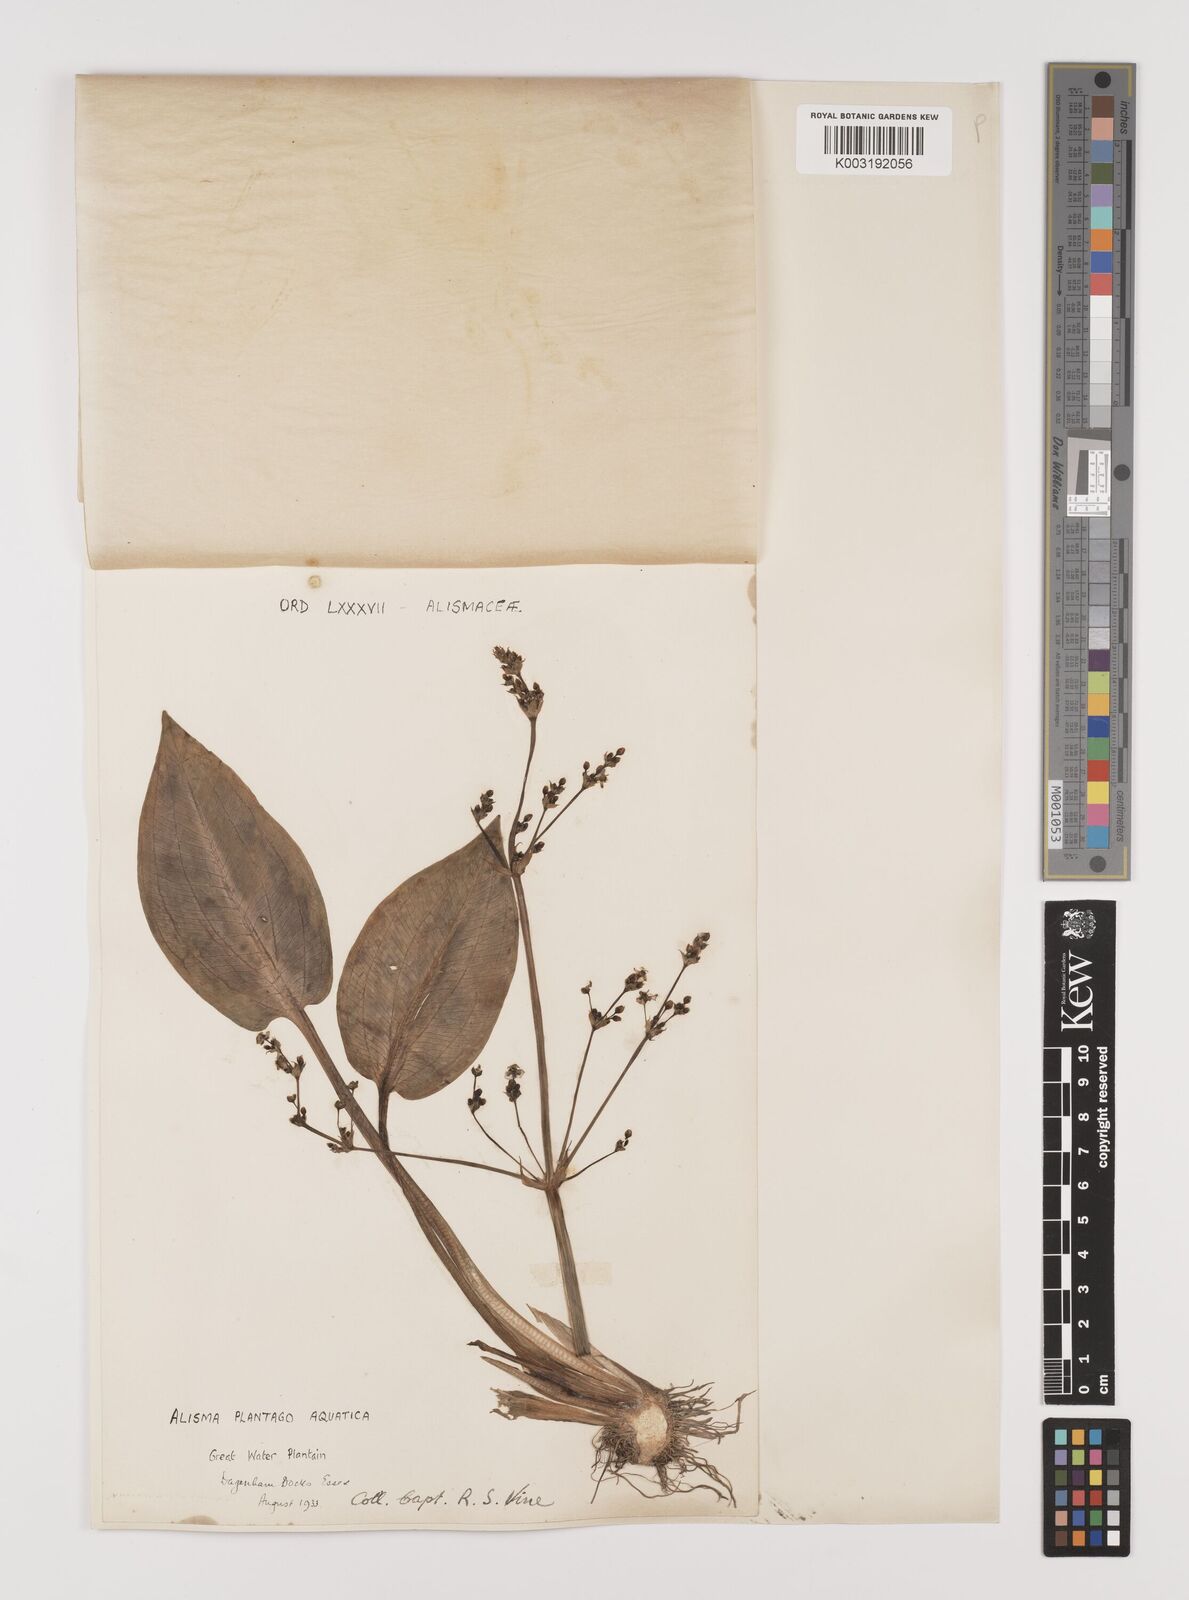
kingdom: Plantae
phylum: Tracheophyta
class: Liliopsida
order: Alismatales
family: Alismataceae
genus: Alisma
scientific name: Alisma plantago-aquatica
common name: Water-plantain
